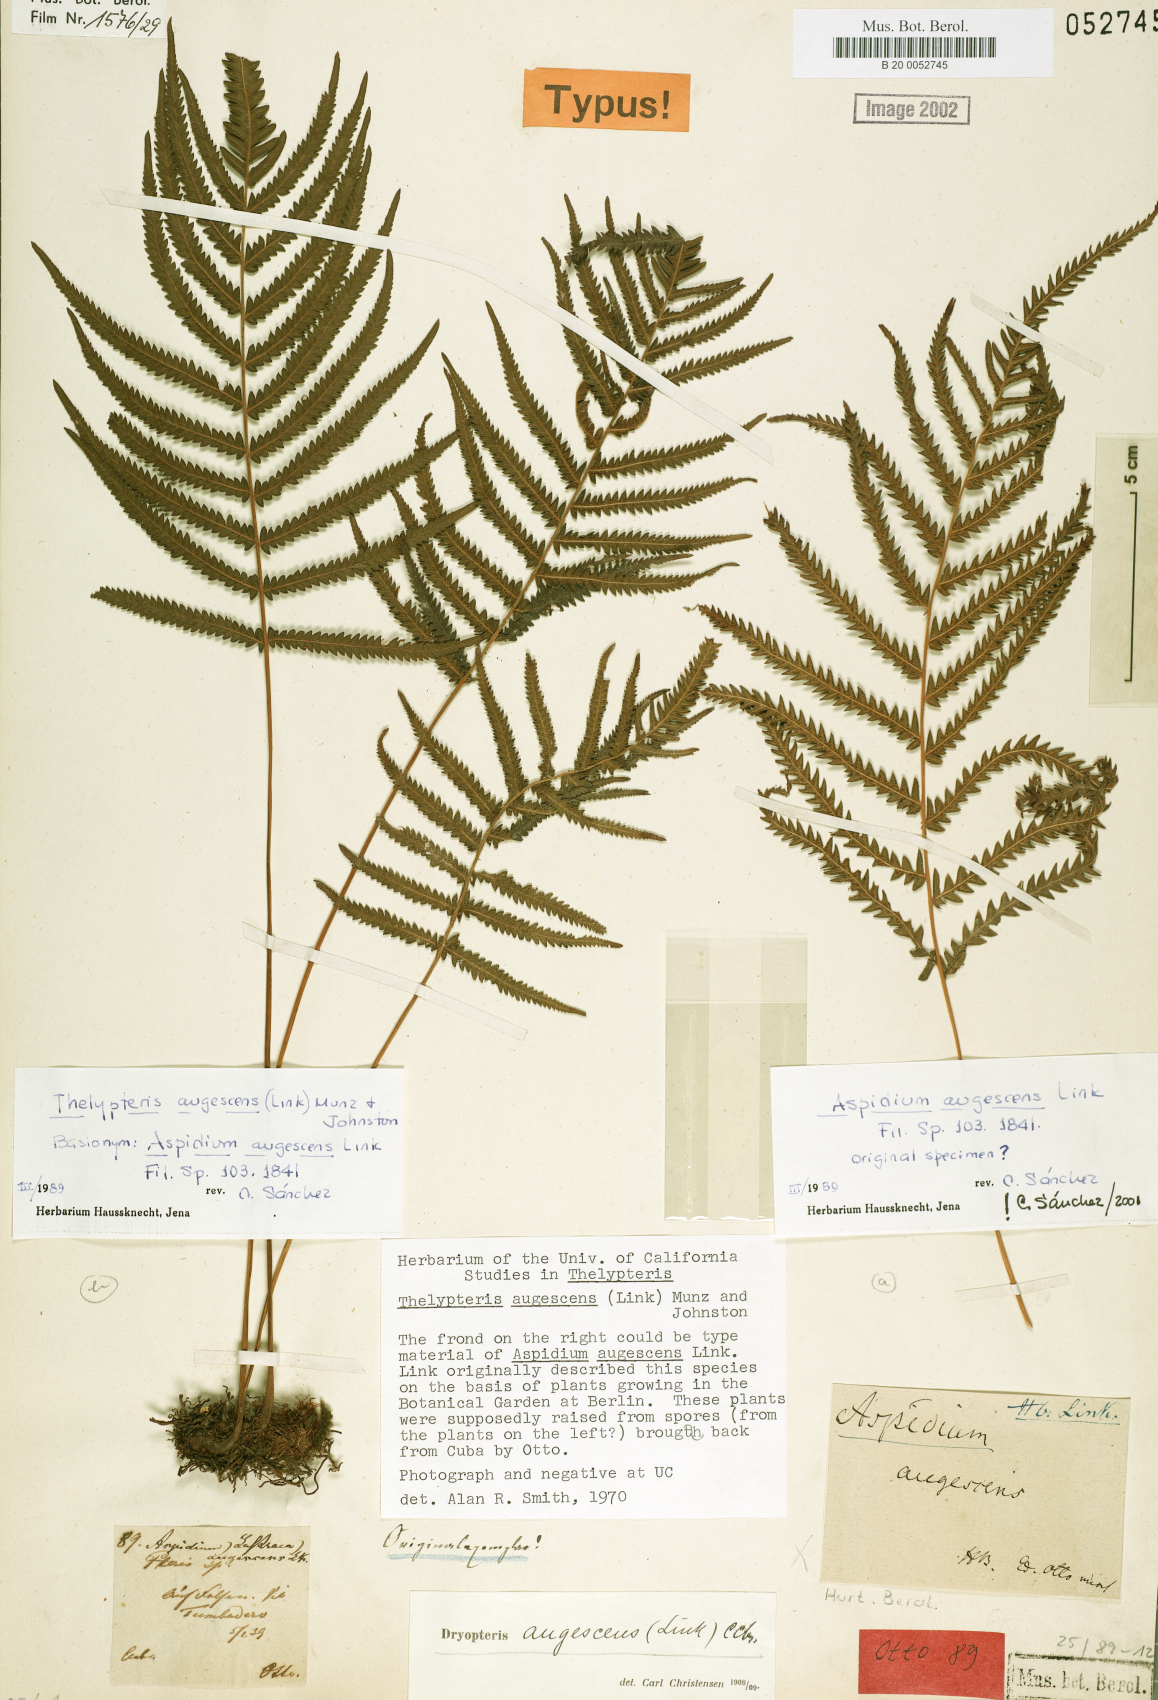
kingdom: Plantae
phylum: Tracheophyta
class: Polypodiopsida
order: Polypodiales
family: Thelypteridaceae
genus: Pelazoneuron
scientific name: Pelazoneuron augescens
